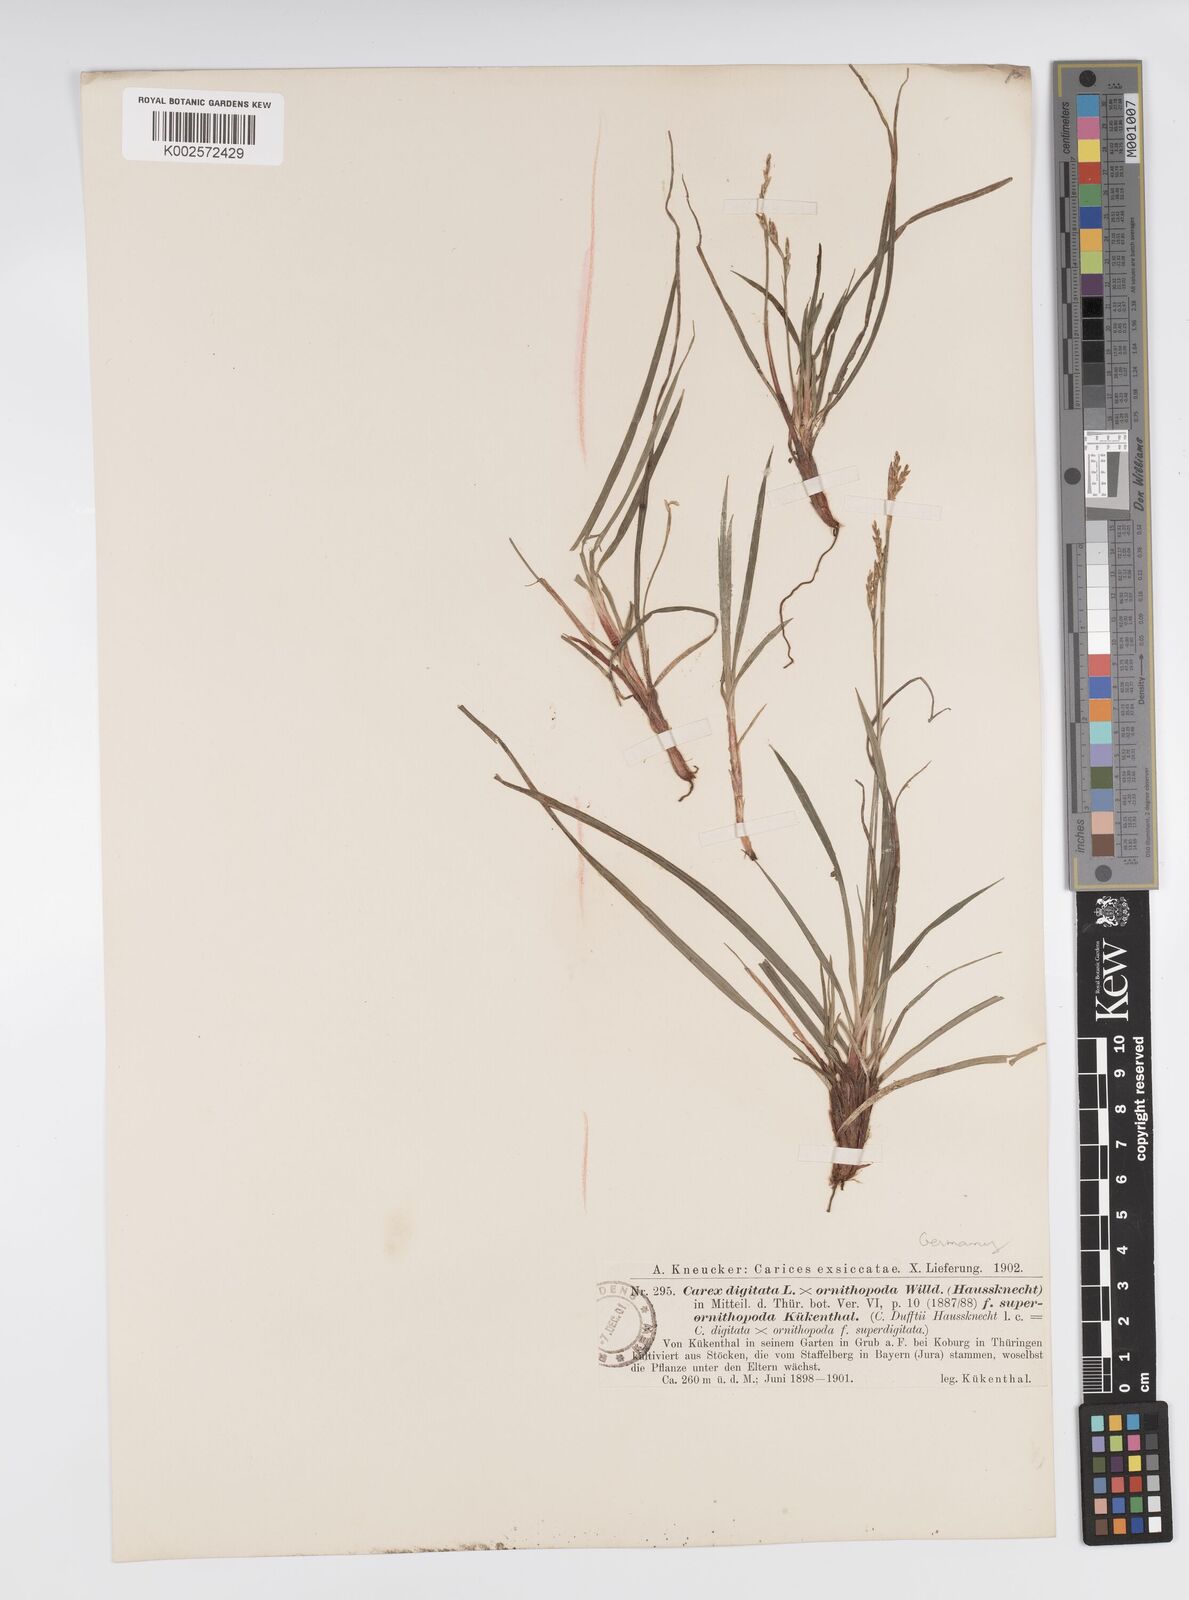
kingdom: Plantae
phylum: Tracheophyta
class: Liliopsida
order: Poales
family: Cyperaceae
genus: Carex
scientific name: Carex digitata
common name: Fingered sedge
